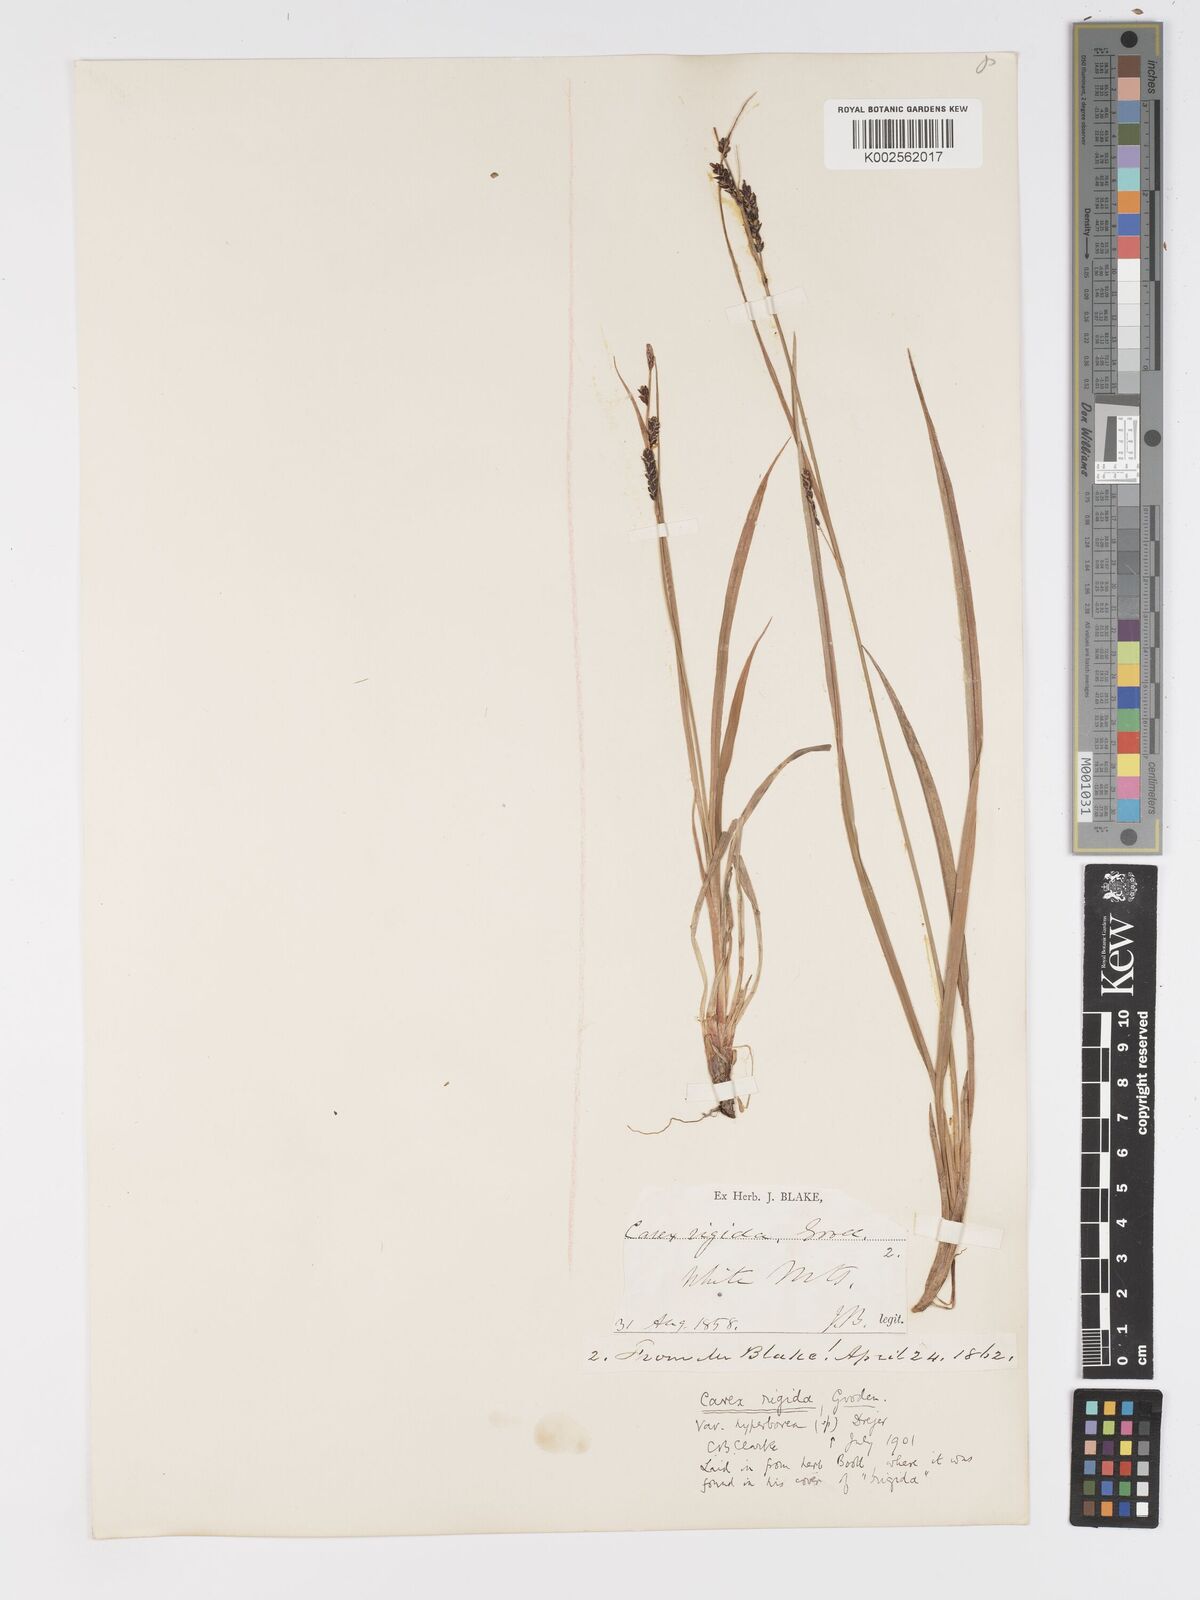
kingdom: Plantae
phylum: Tracheophyta
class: Liliopsida
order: Poales
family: Cyperaceae
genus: Carex
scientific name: Carex bigelowii
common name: Stiff sedge
